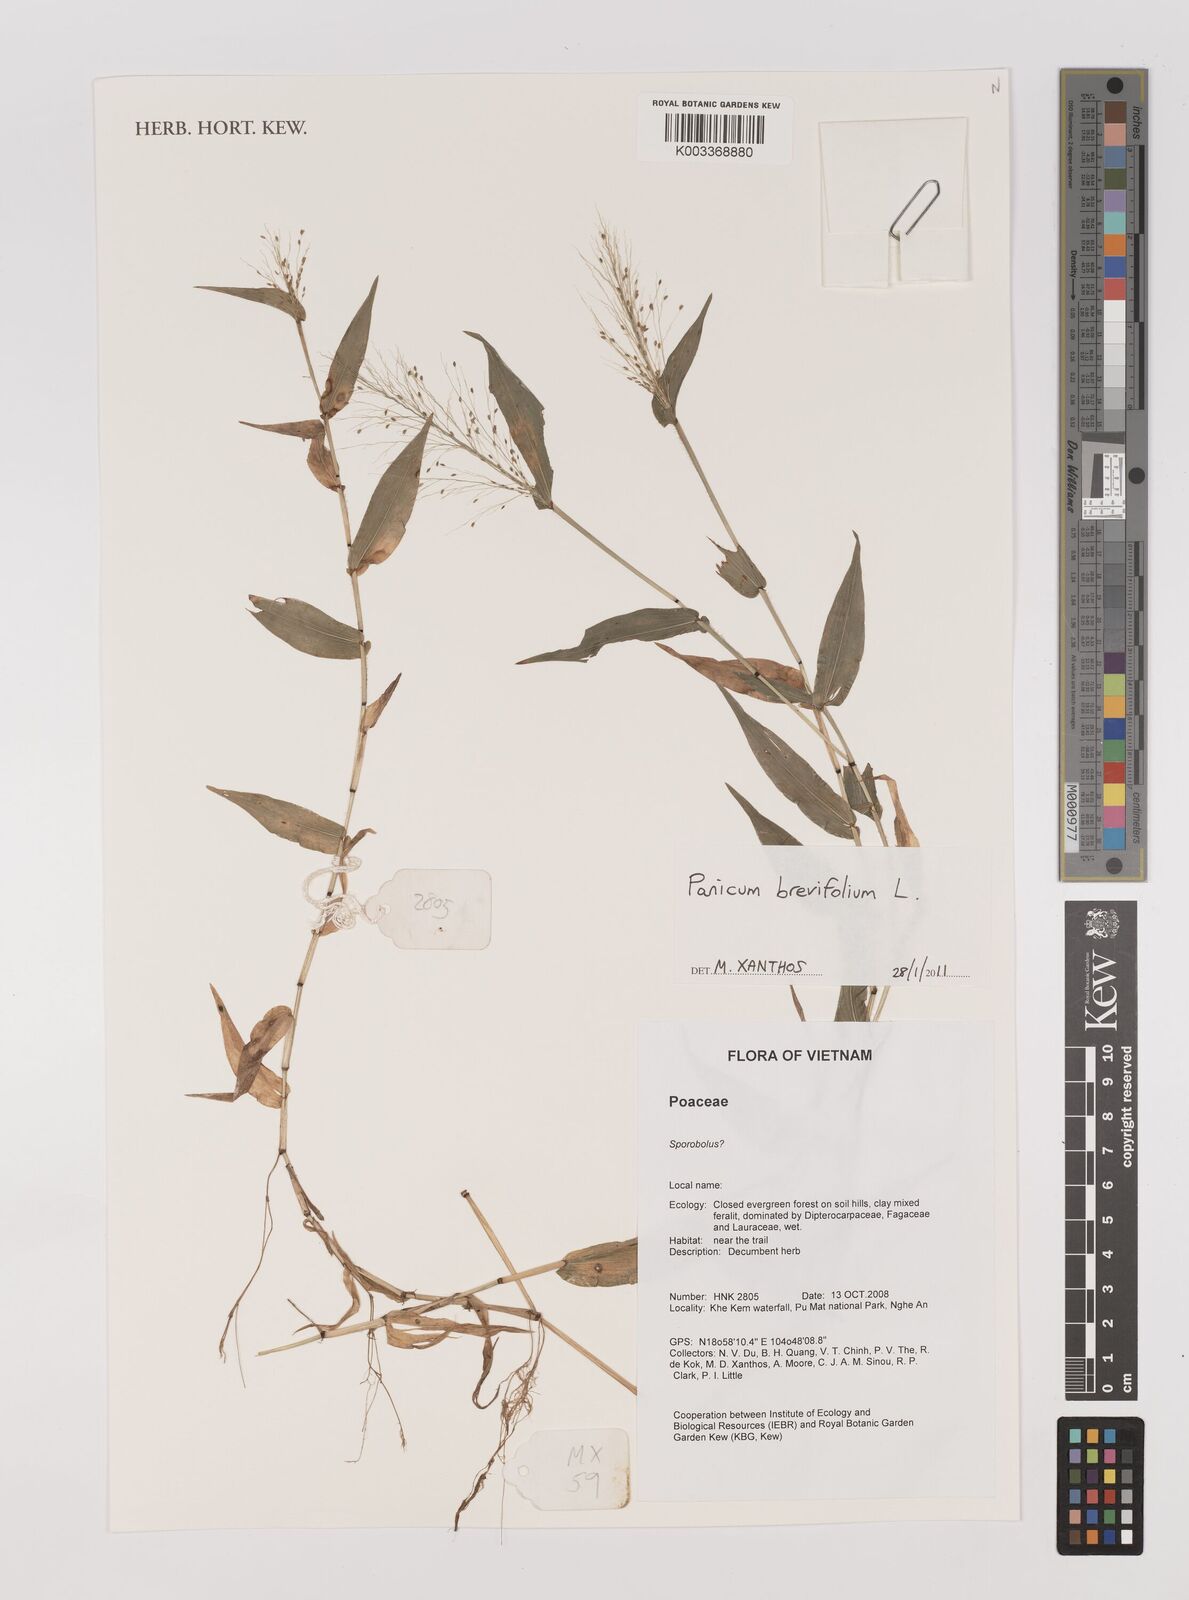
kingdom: Plantae
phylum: Tracheophyta
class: Liliopsida
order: Poales
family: Poaceae
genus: Panicum
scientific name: Panicum brevifolium
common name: Shortleaf panic grass
